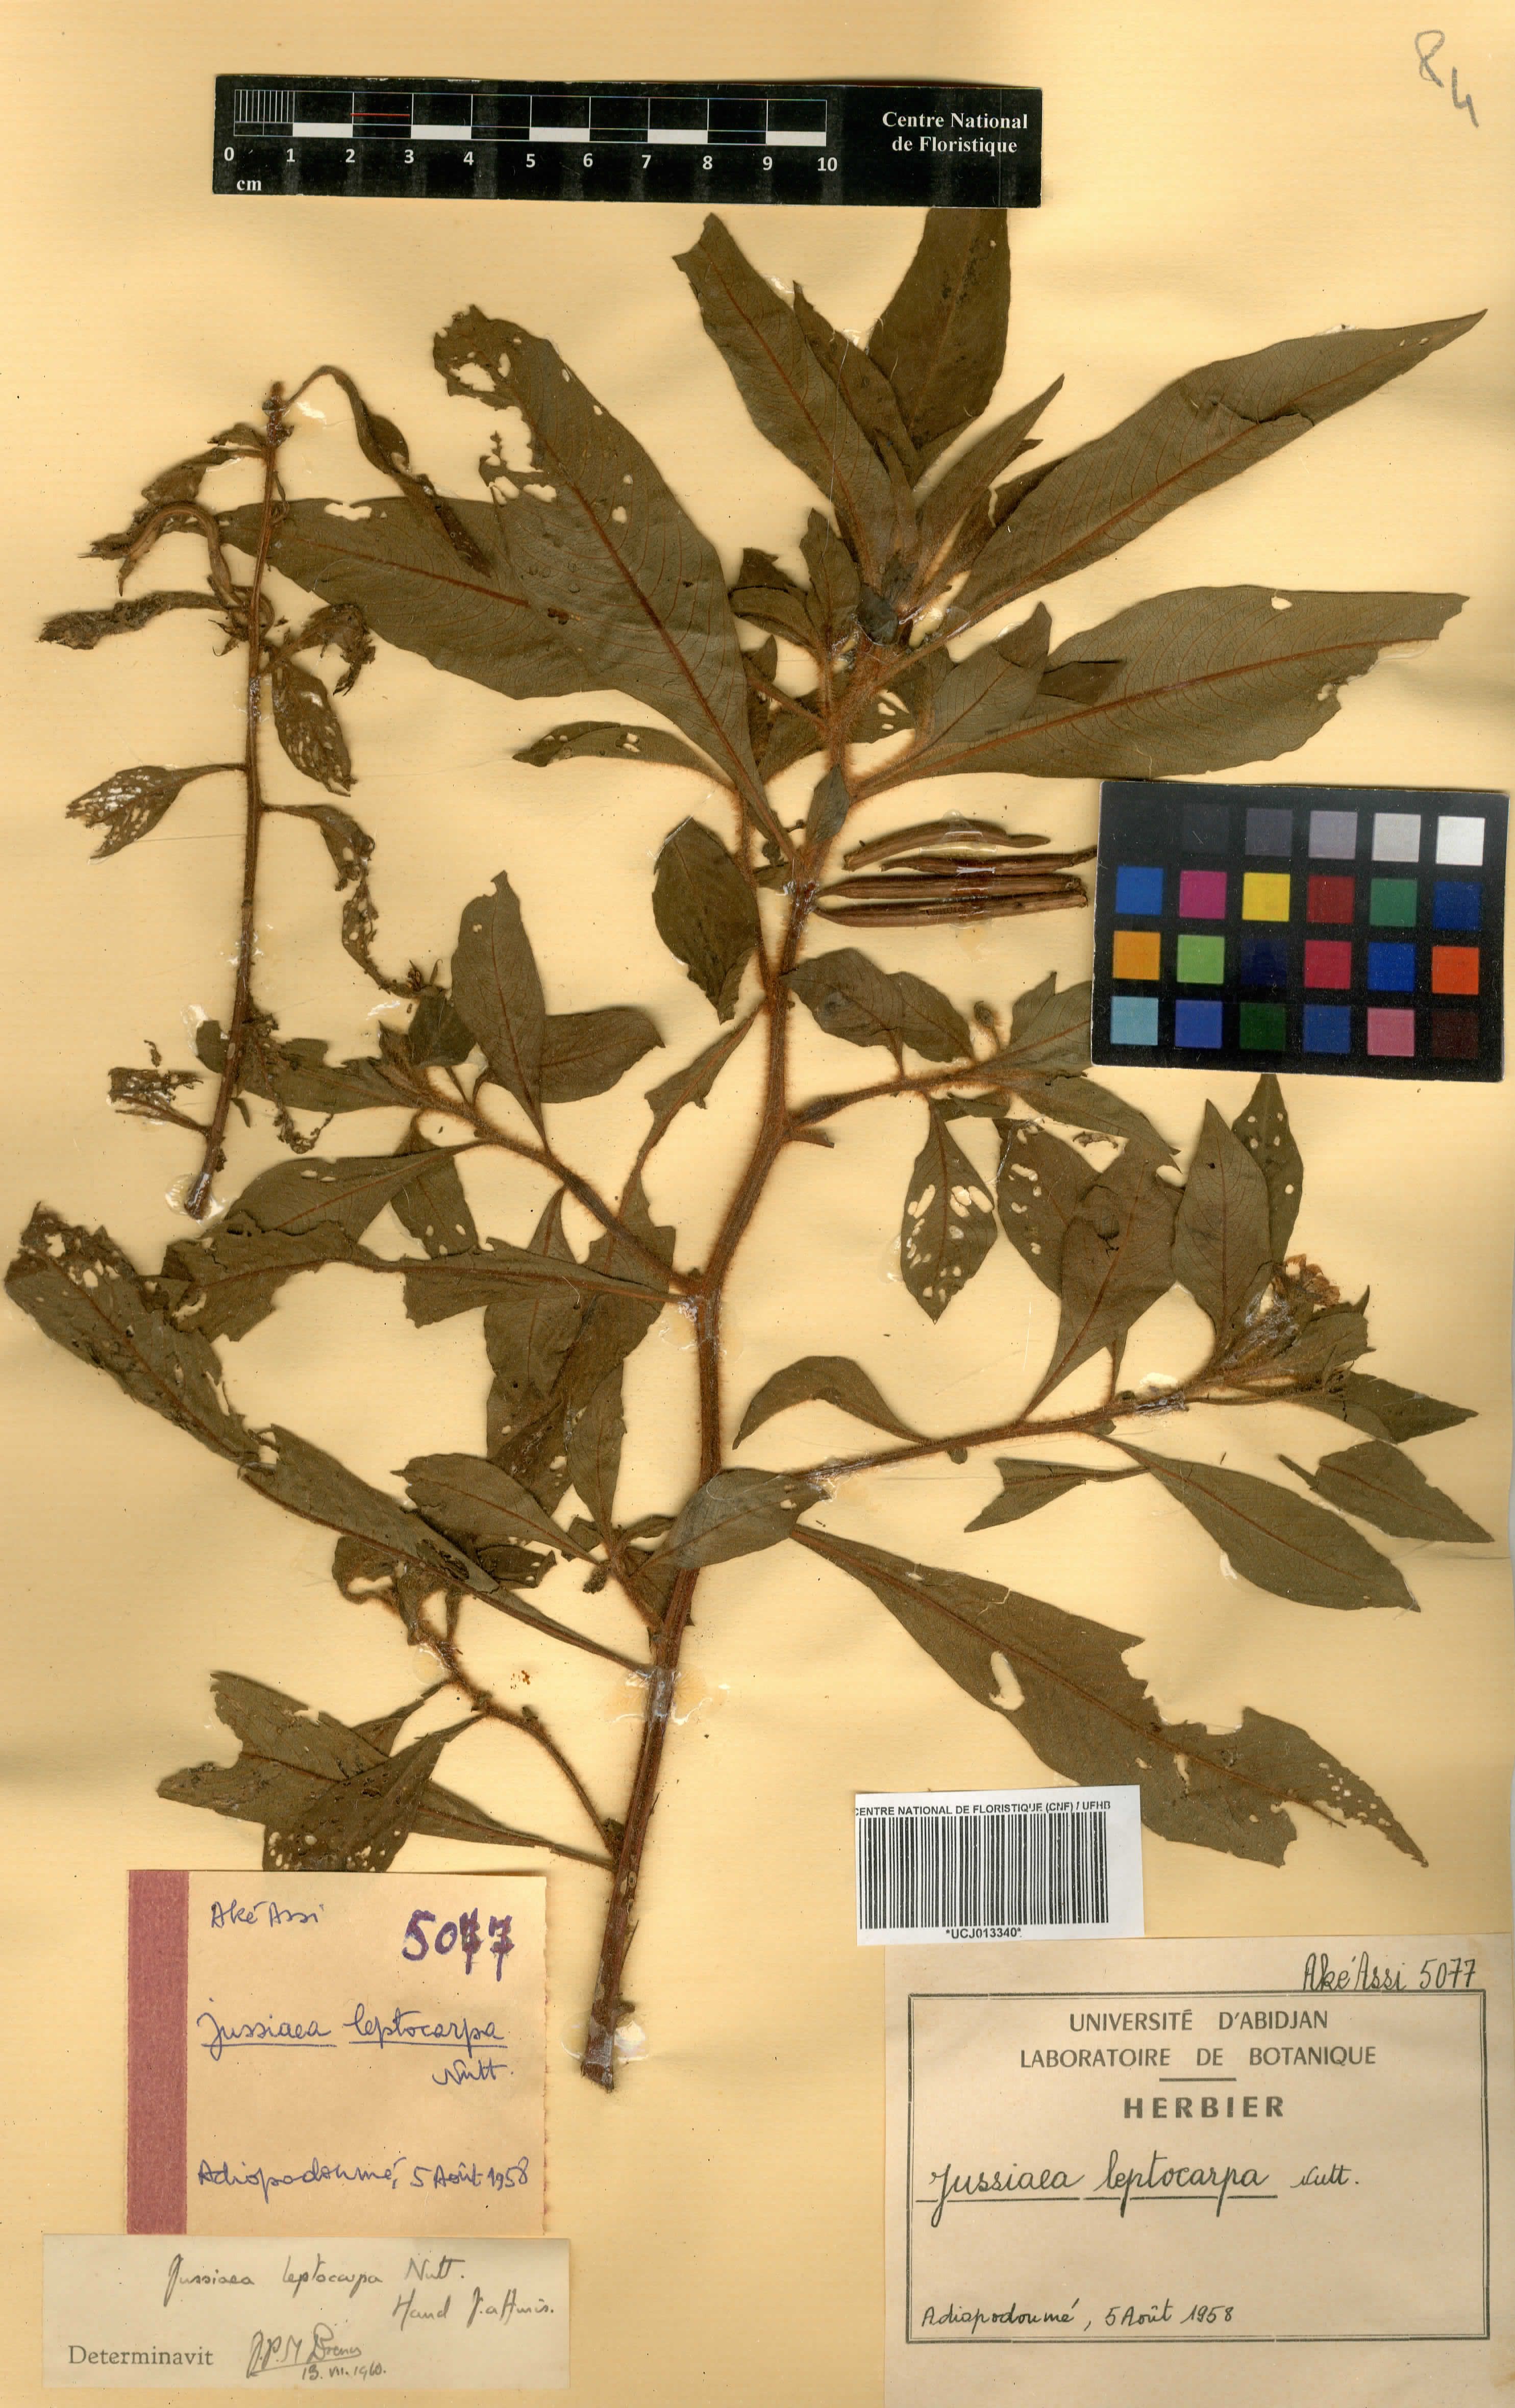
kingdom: Plantae
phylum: Tracheophyta
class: Magnoliopsida
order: Myrtales
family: Onagraceae
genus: Ludwigia
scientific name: Ludwigia leptocarpa
